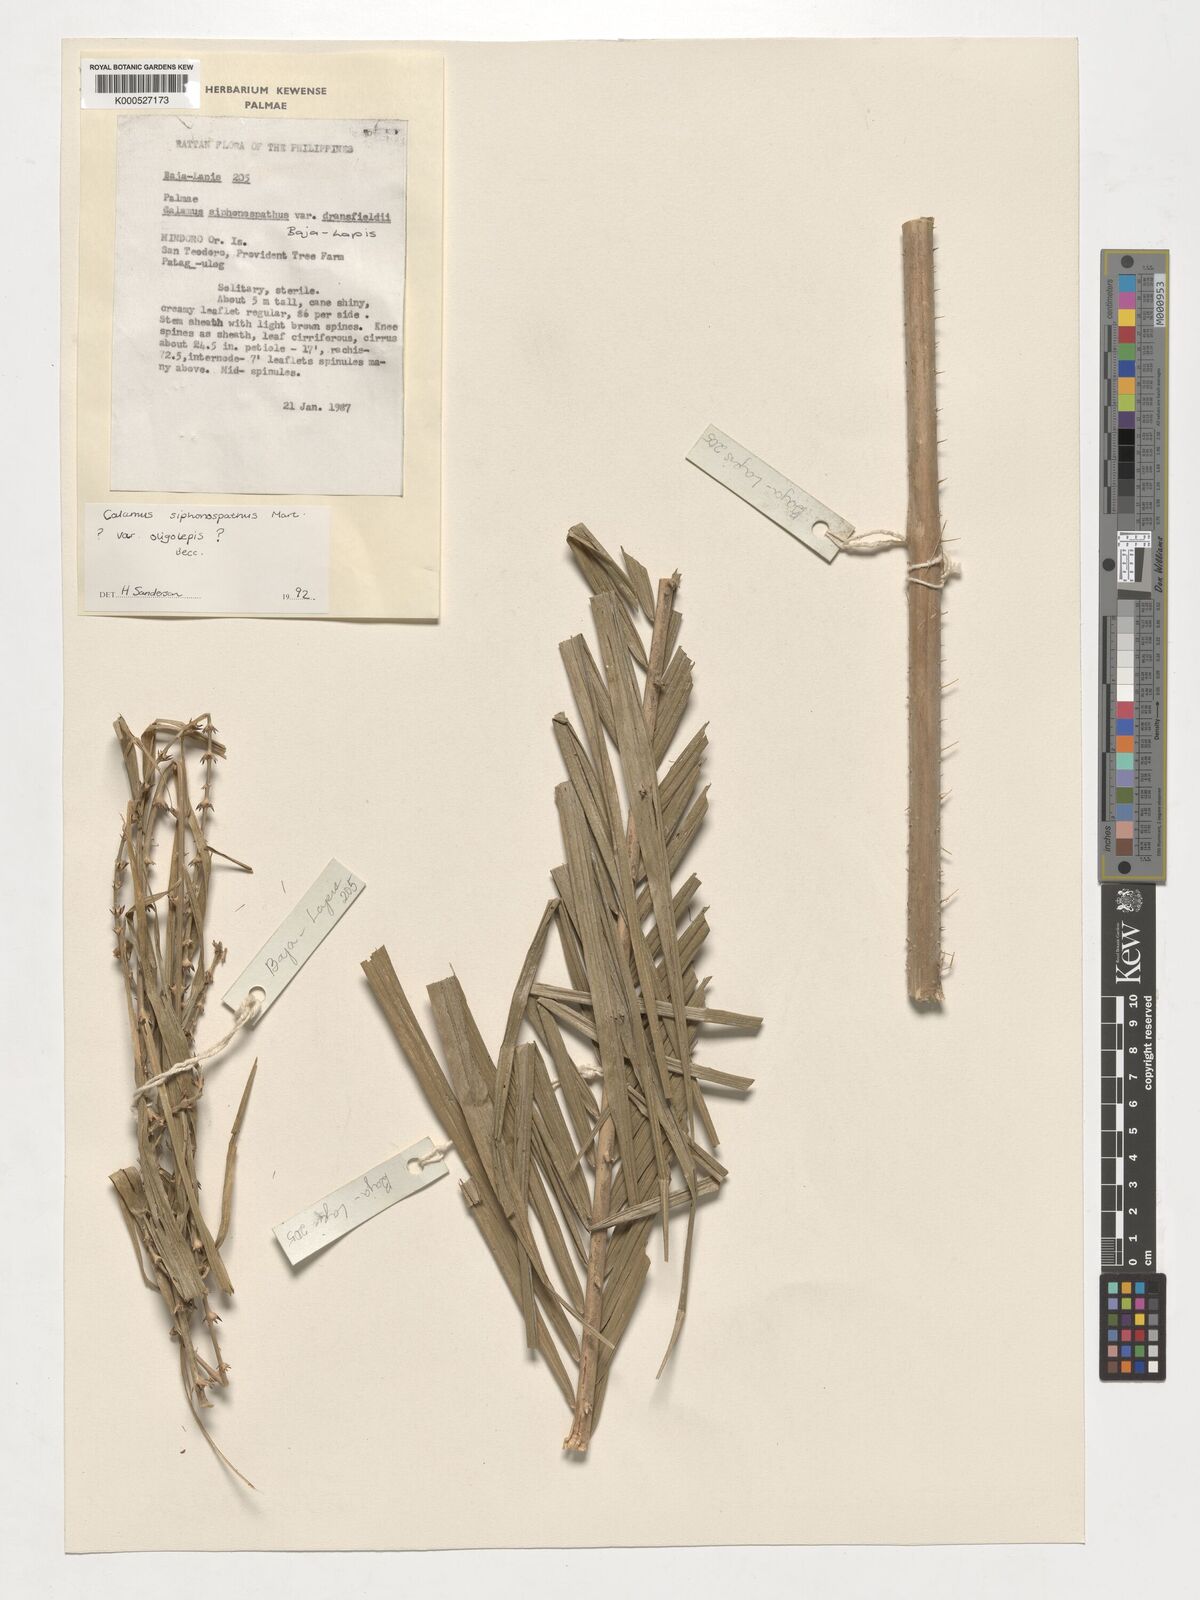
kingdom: Plantae
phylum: Tracheophyta
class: Liliopsida
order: Arecales
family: Arecaceae
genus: Calamus
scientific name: Calamus siphonospathus
